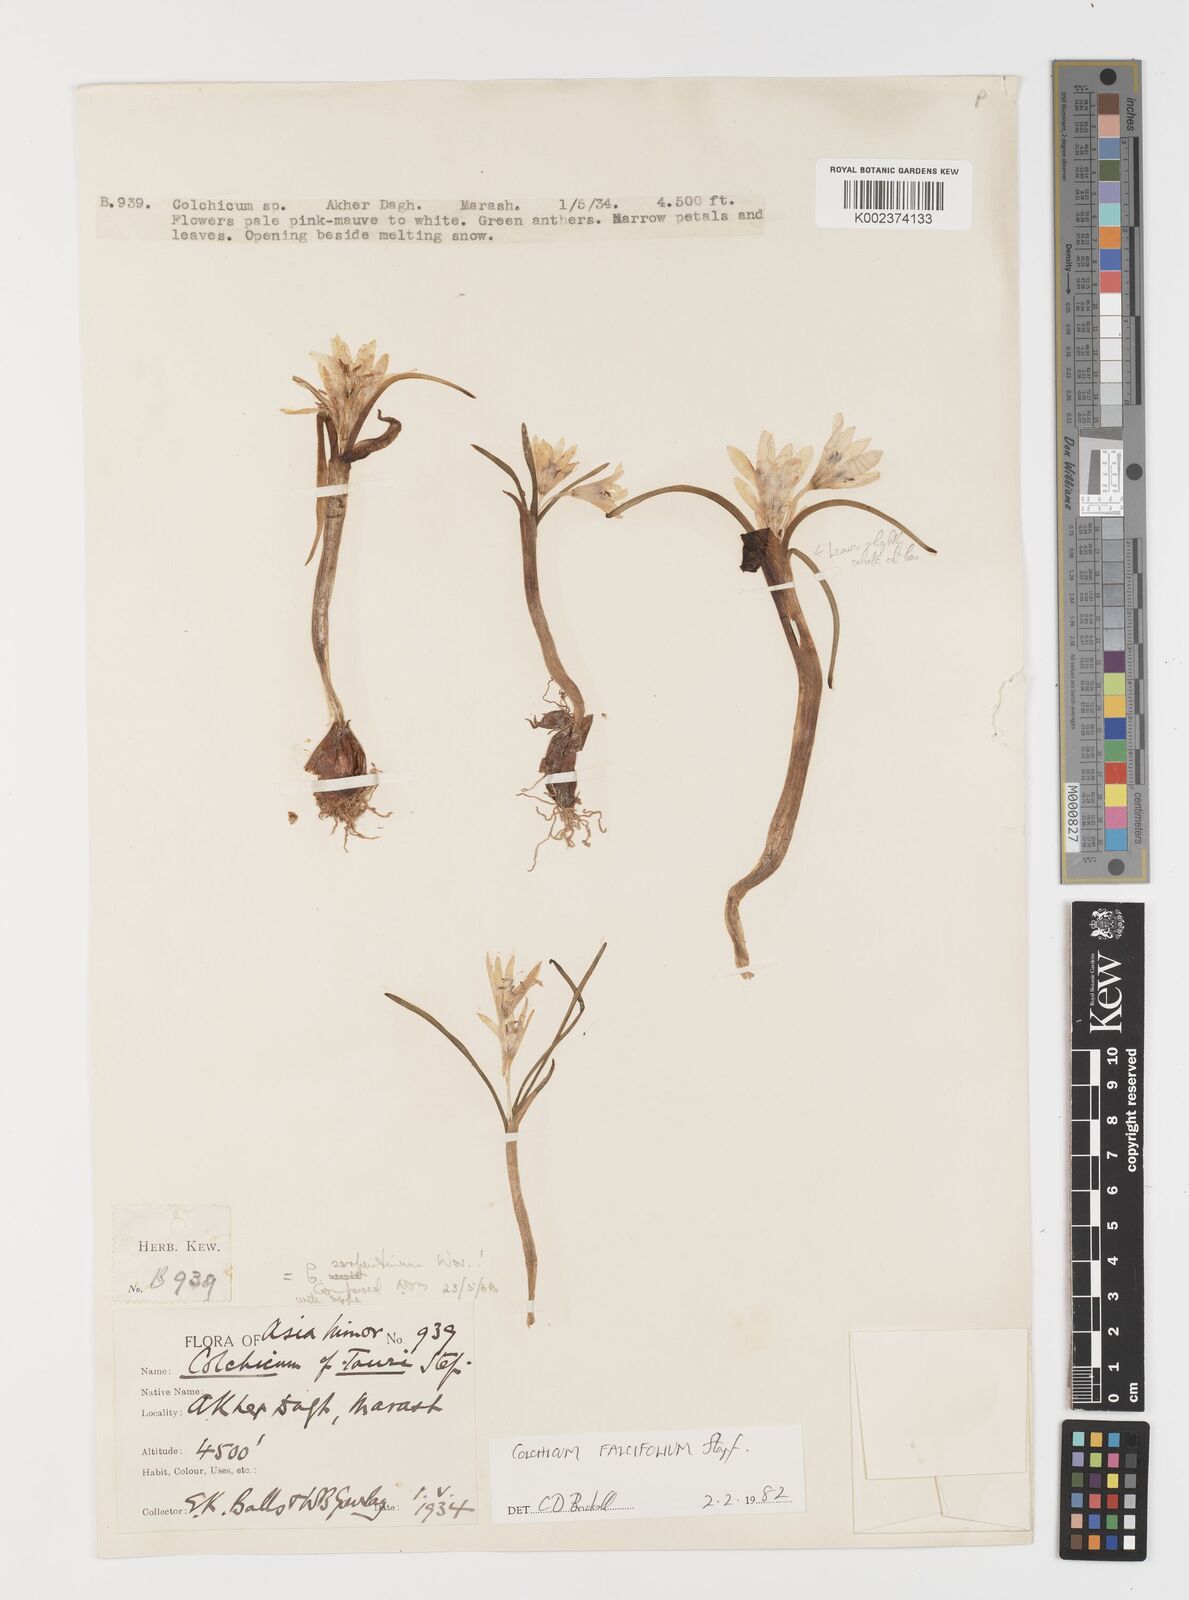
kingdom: Plantae
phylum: Tracheophyta
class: Liliopsida
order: Asparagales
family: Iridaceae
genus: Iris
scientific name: Iris caucasica
